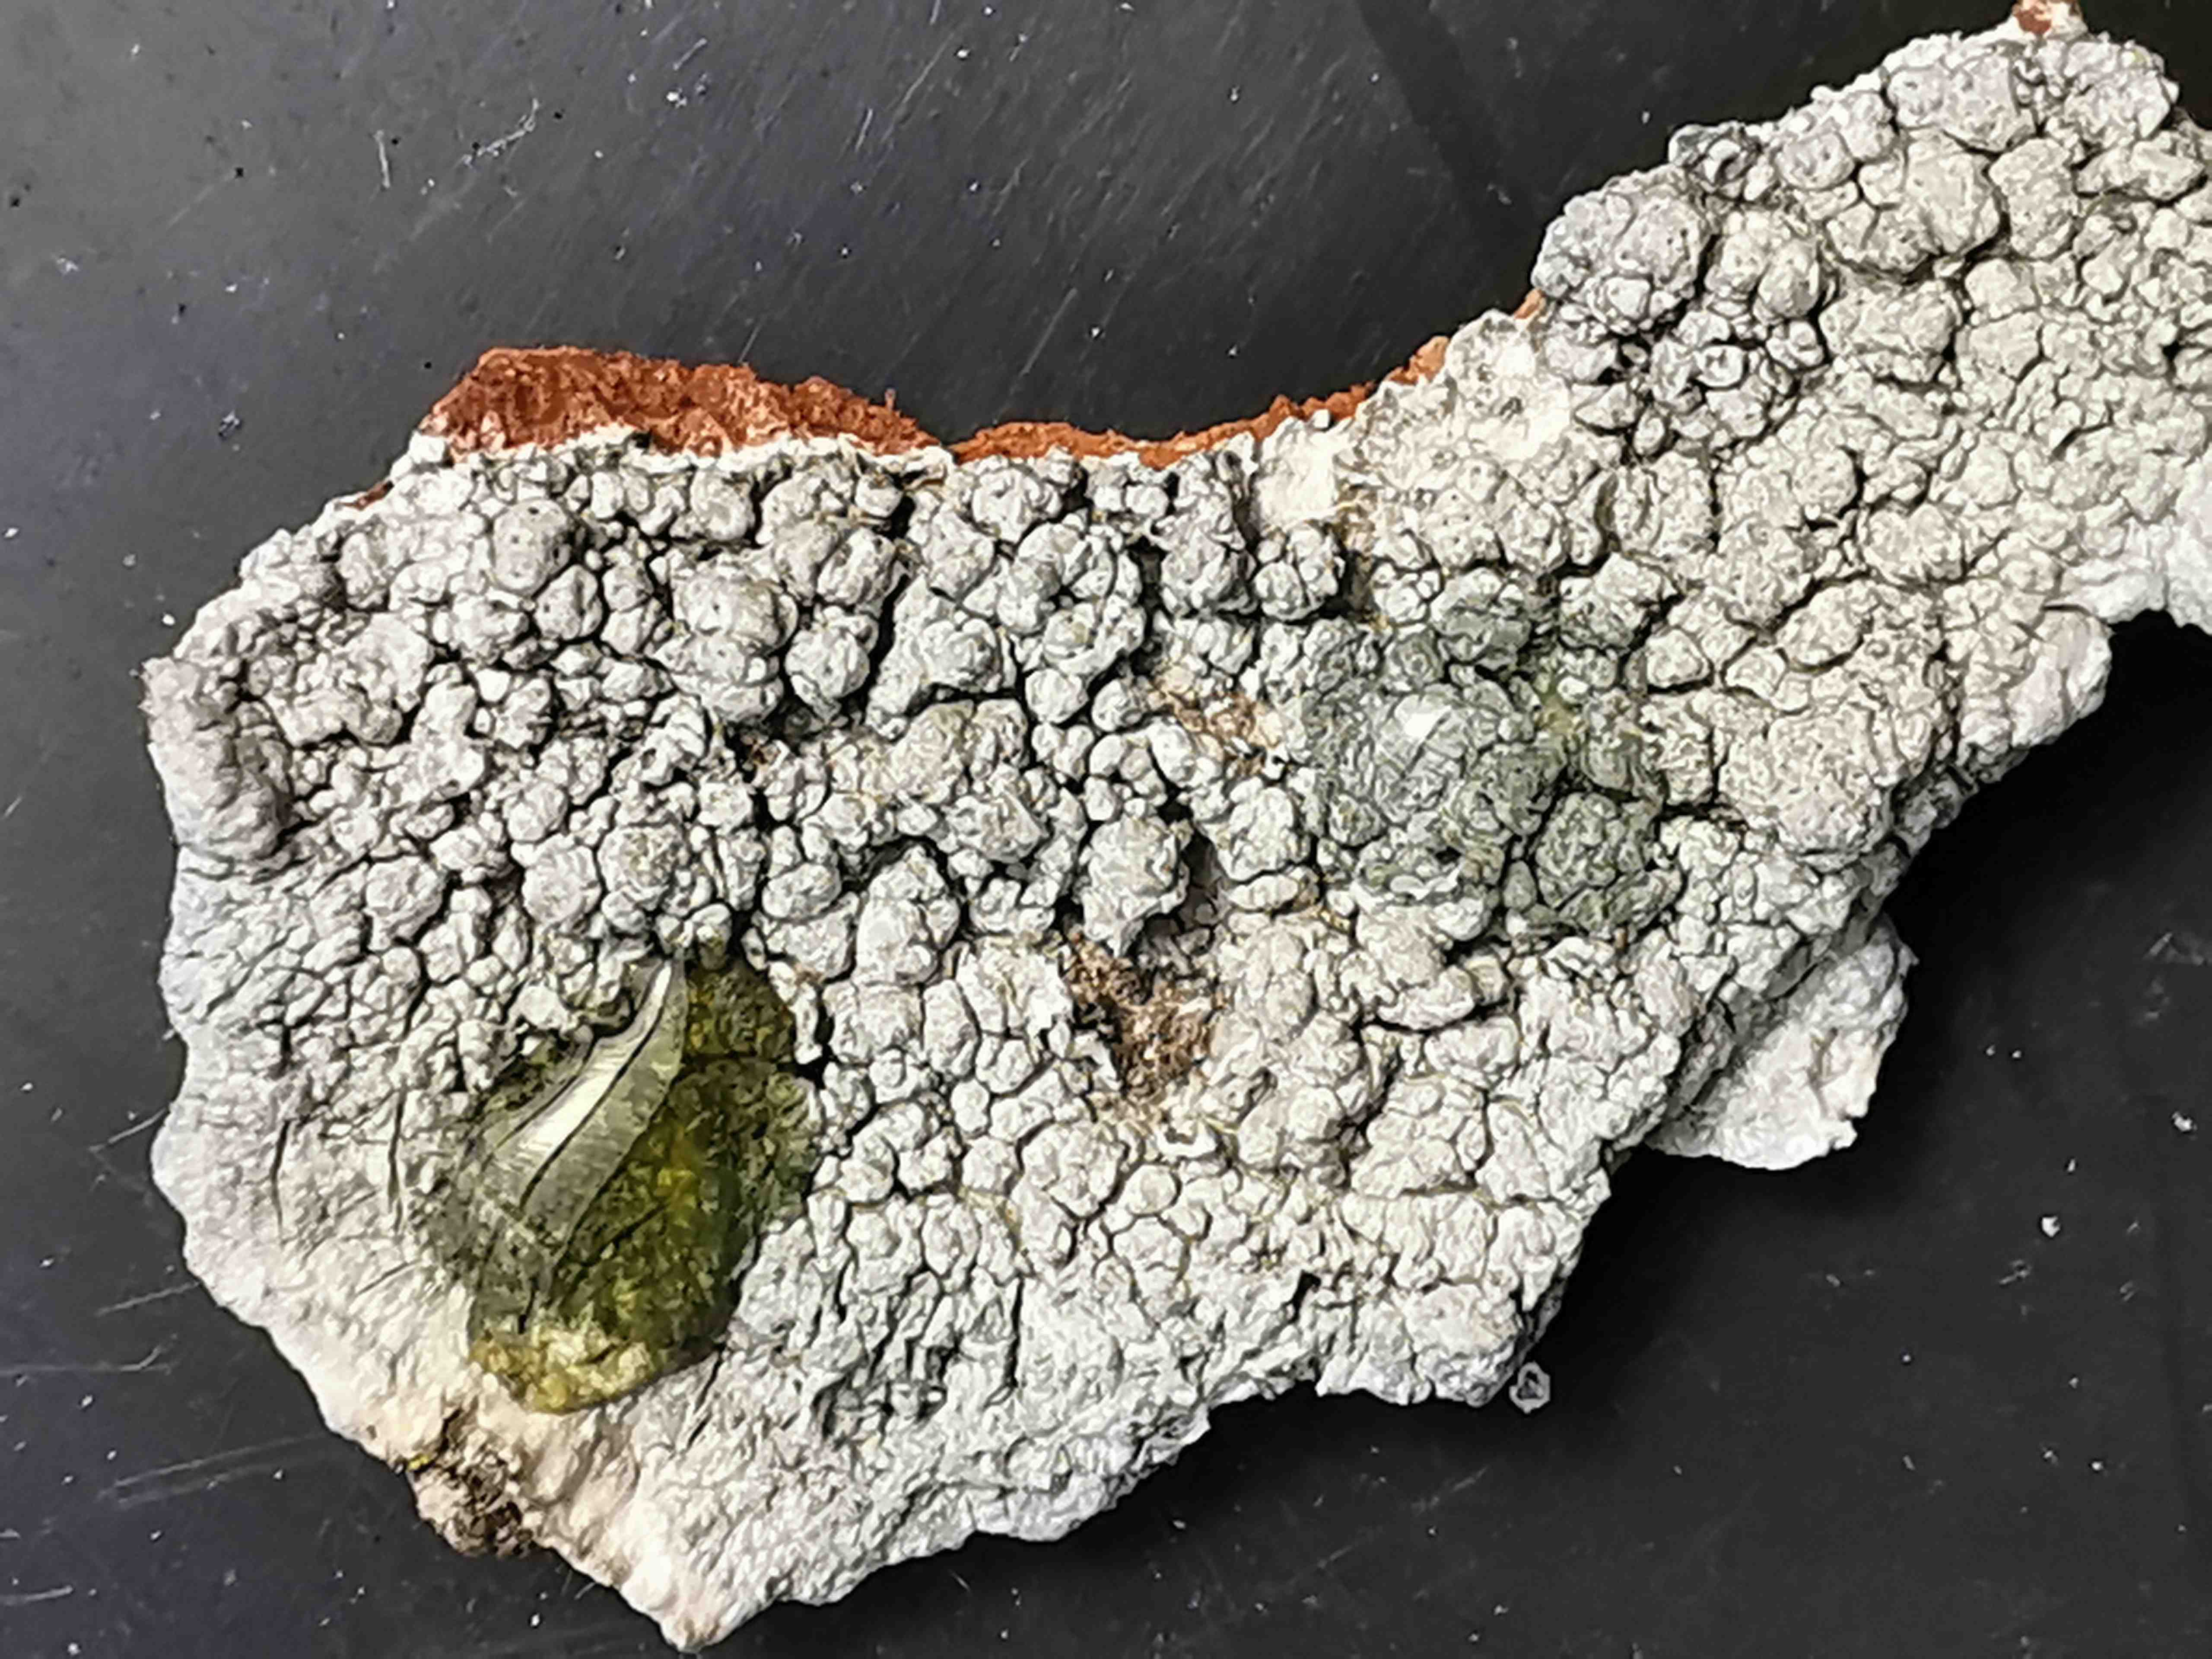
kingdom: Fungi
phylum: Ascomycota
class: Lecanoromycetes
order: Pertusariales
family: Pertusariaceae
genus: Pertusaria
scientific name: Pertusaria pertusa
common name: almindelig prikvortelav
